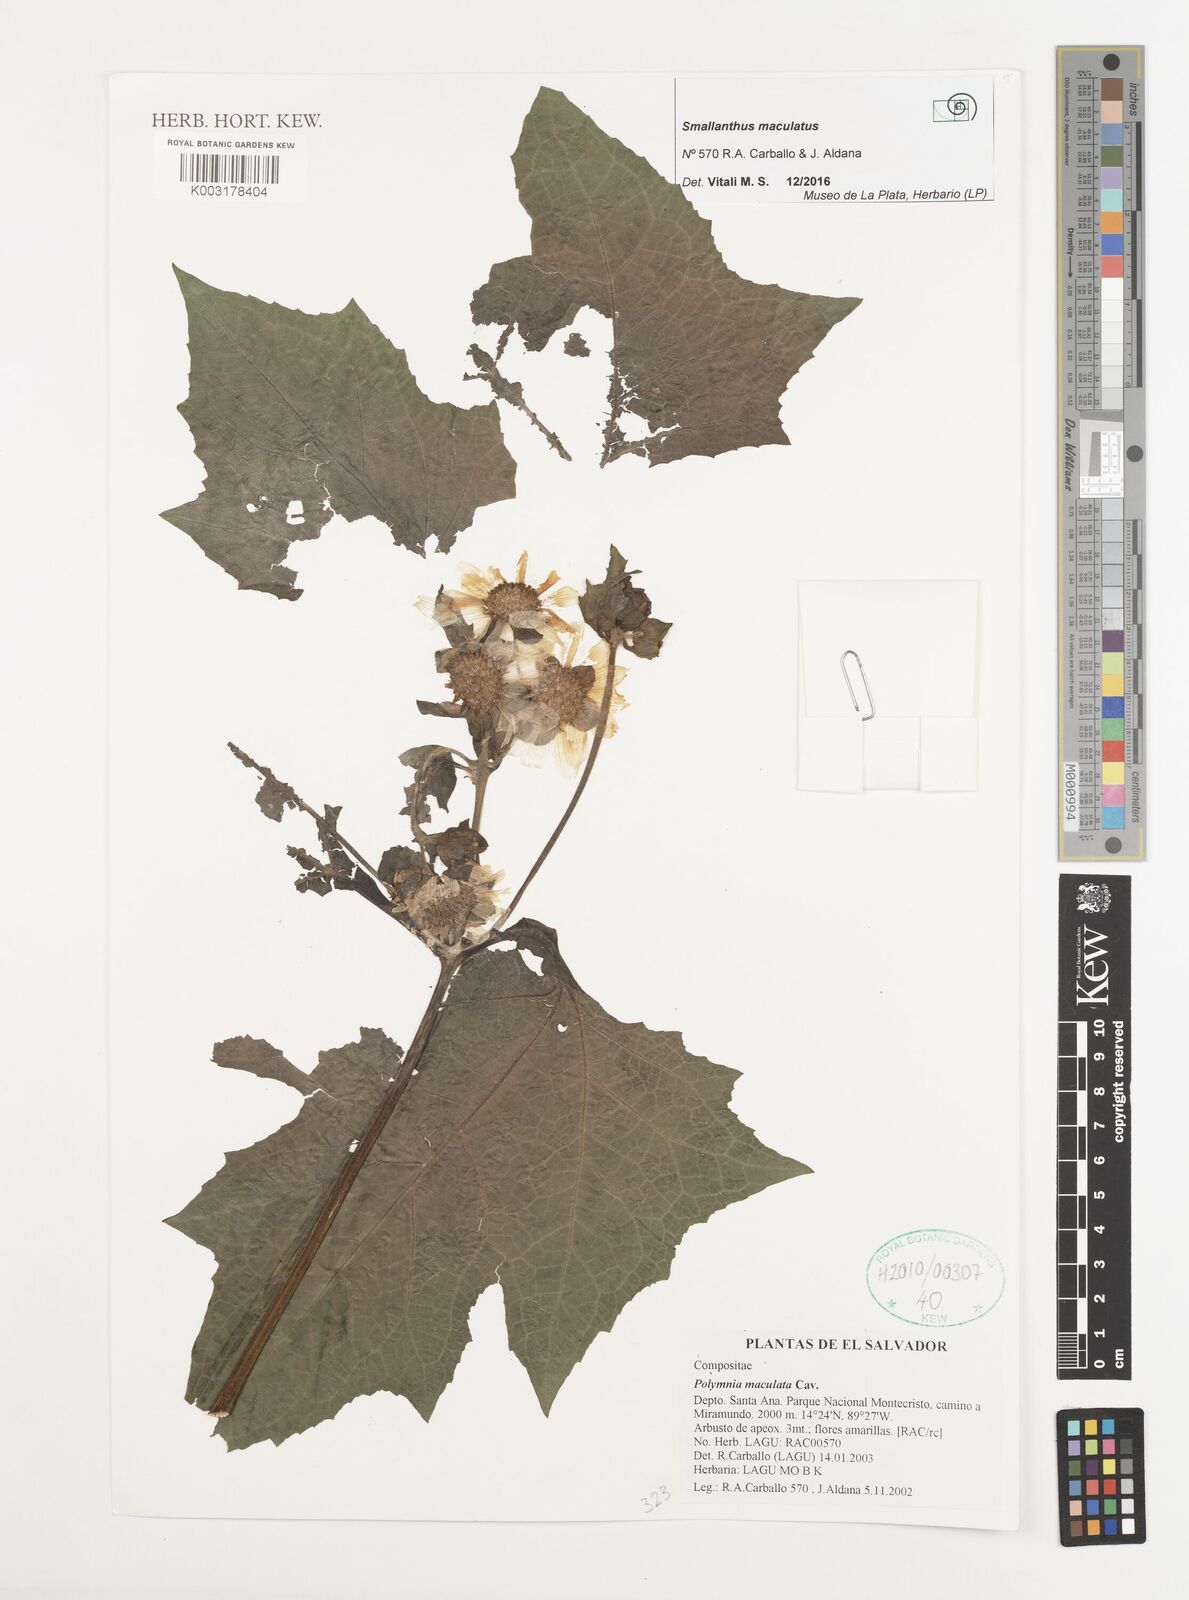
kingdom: Plantae
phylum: Tracheophyta
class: Magnoliopsida
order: Asterales
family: Asteraceae
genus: Smallanthus
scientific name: Smallanthus maculatus
